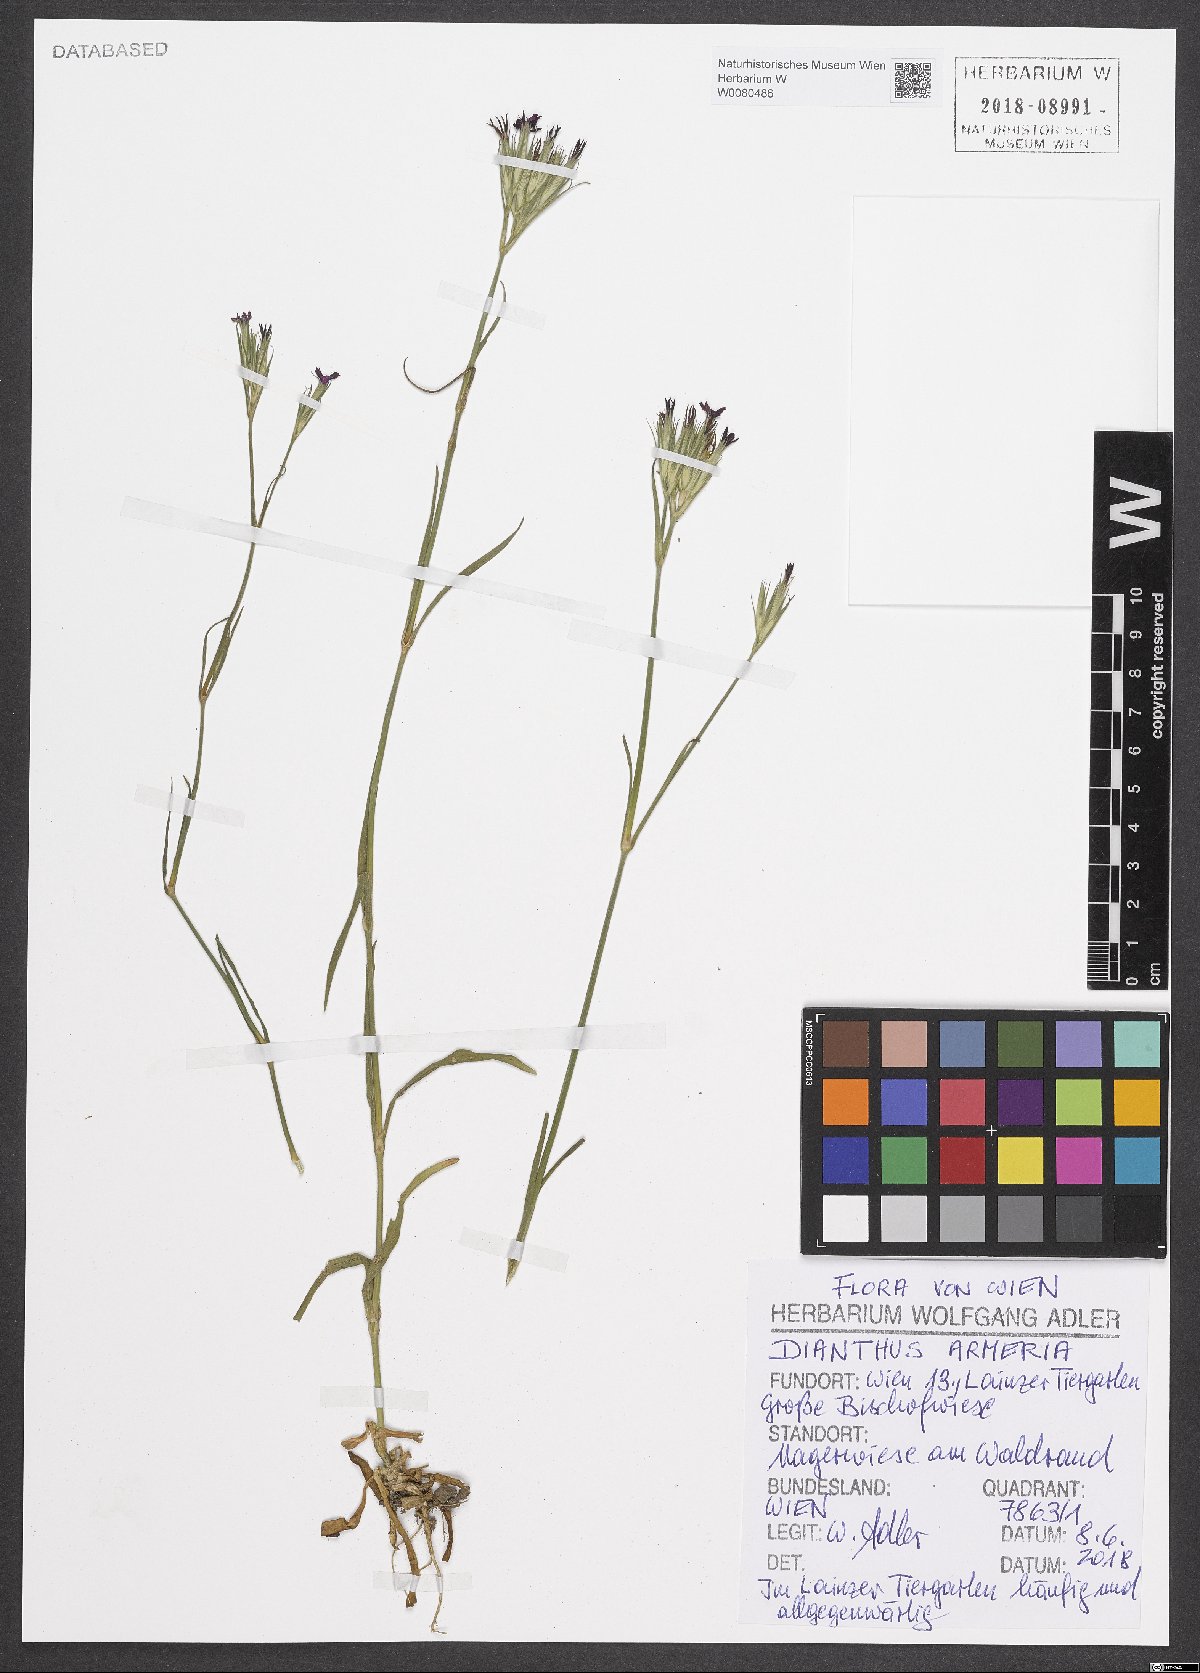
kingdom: Plantae
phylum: Tracheophyta
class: Magnoliopsida
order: Caryophyllales
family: Caryophyllaceae
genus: Dianthus
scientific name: Dianthus armeria
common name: Deptford pink
